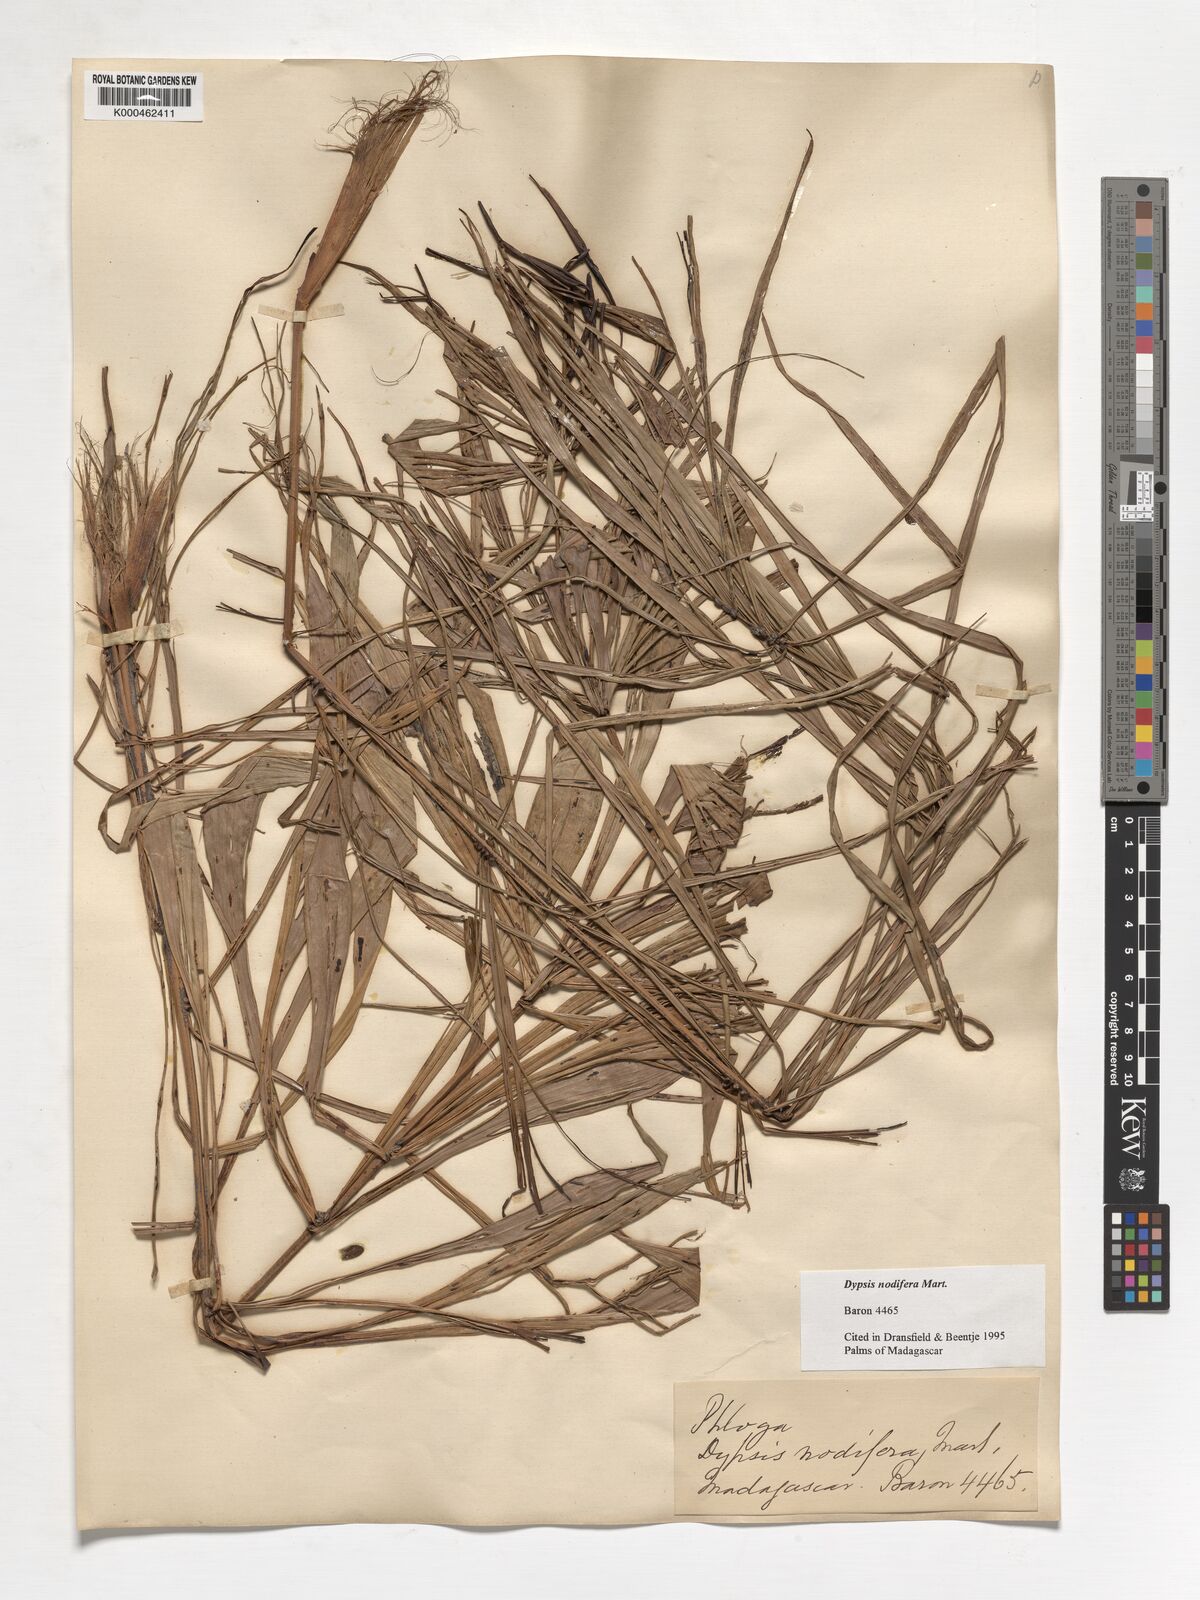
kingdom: Plantae
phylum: Tracheophyta
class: Liliopsida
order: Arecales
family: Arecaceae
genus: Dypsis
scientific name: Dypsis nodifera
